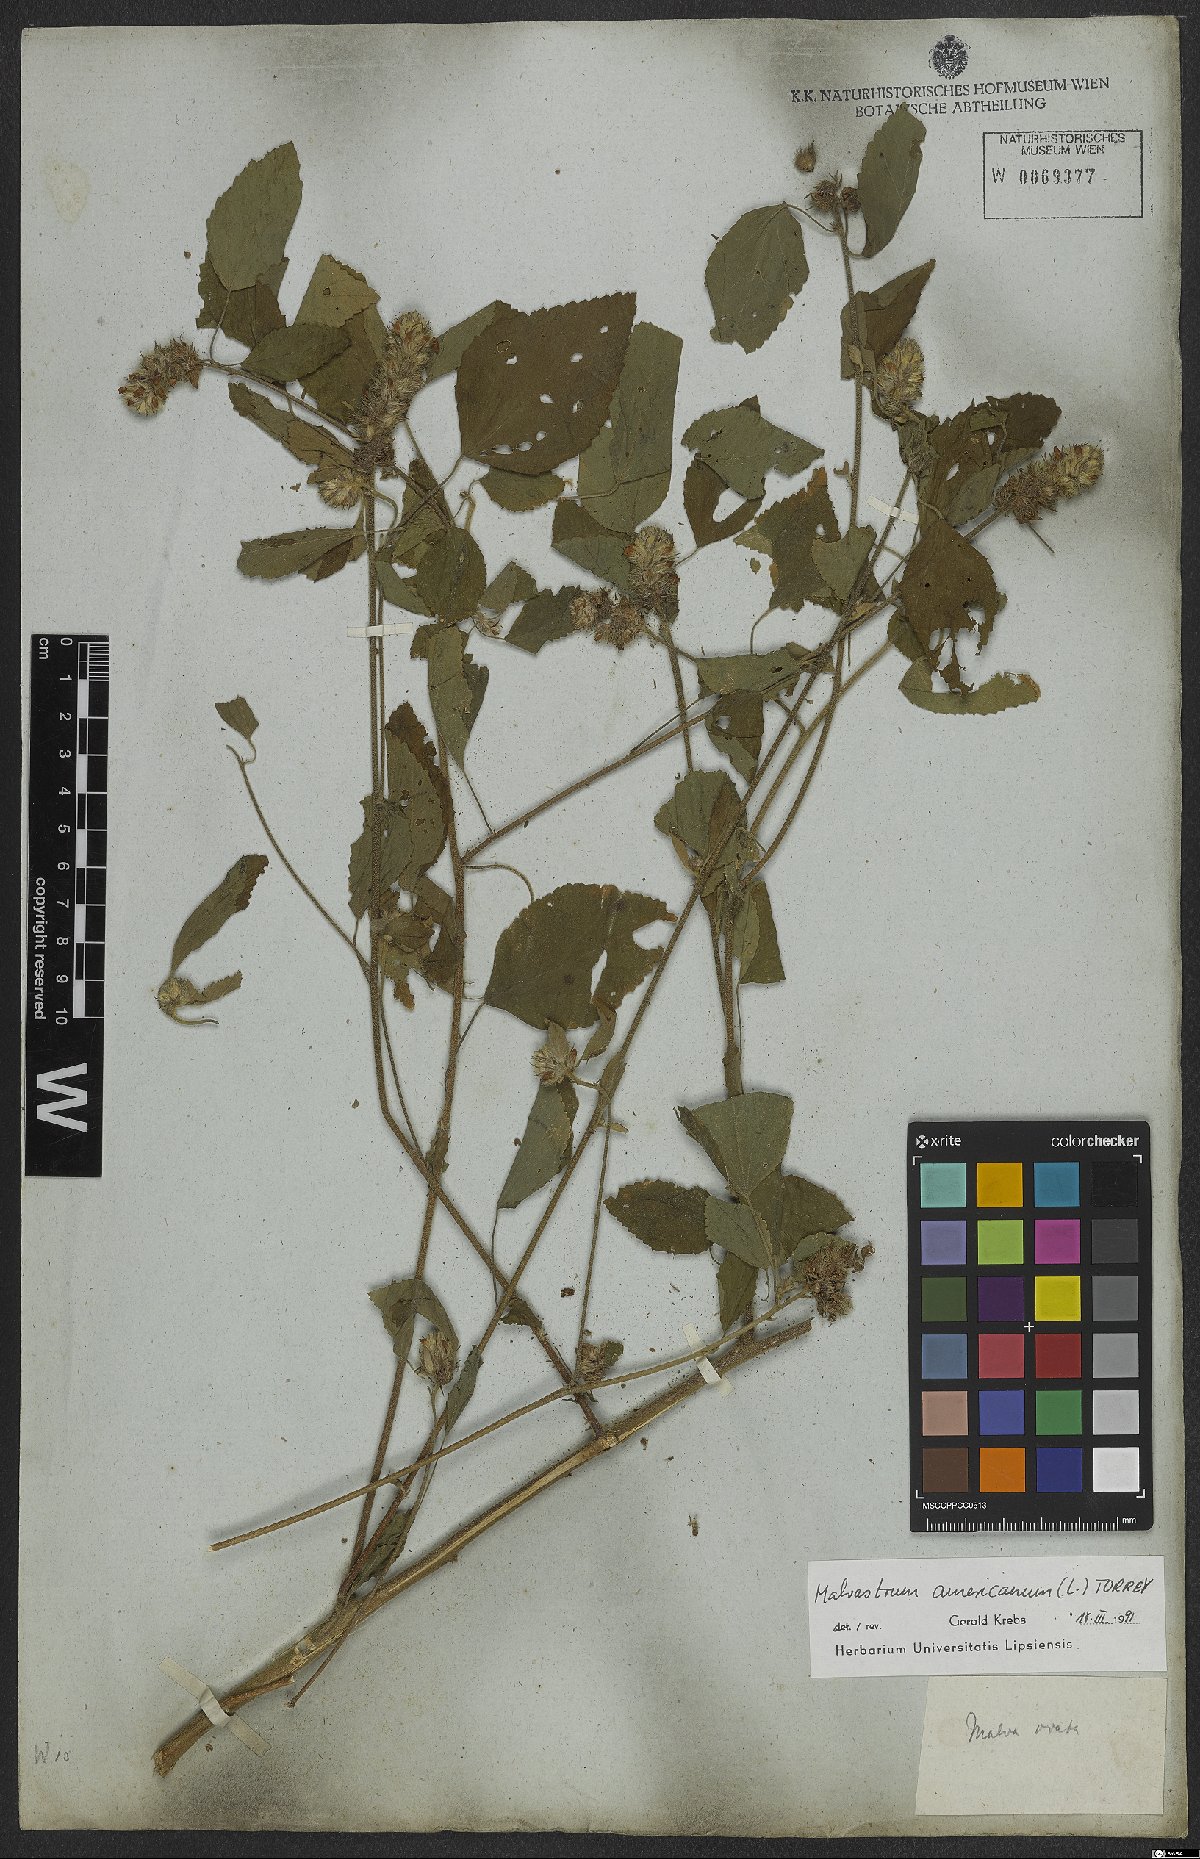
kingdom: Plantae
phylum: Tracheophyta
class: Magnoliopsida
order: Malvales
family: Malvaceae
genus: Malvastrum
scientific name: Malvastrum americanum
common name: Spiked malvastrum
